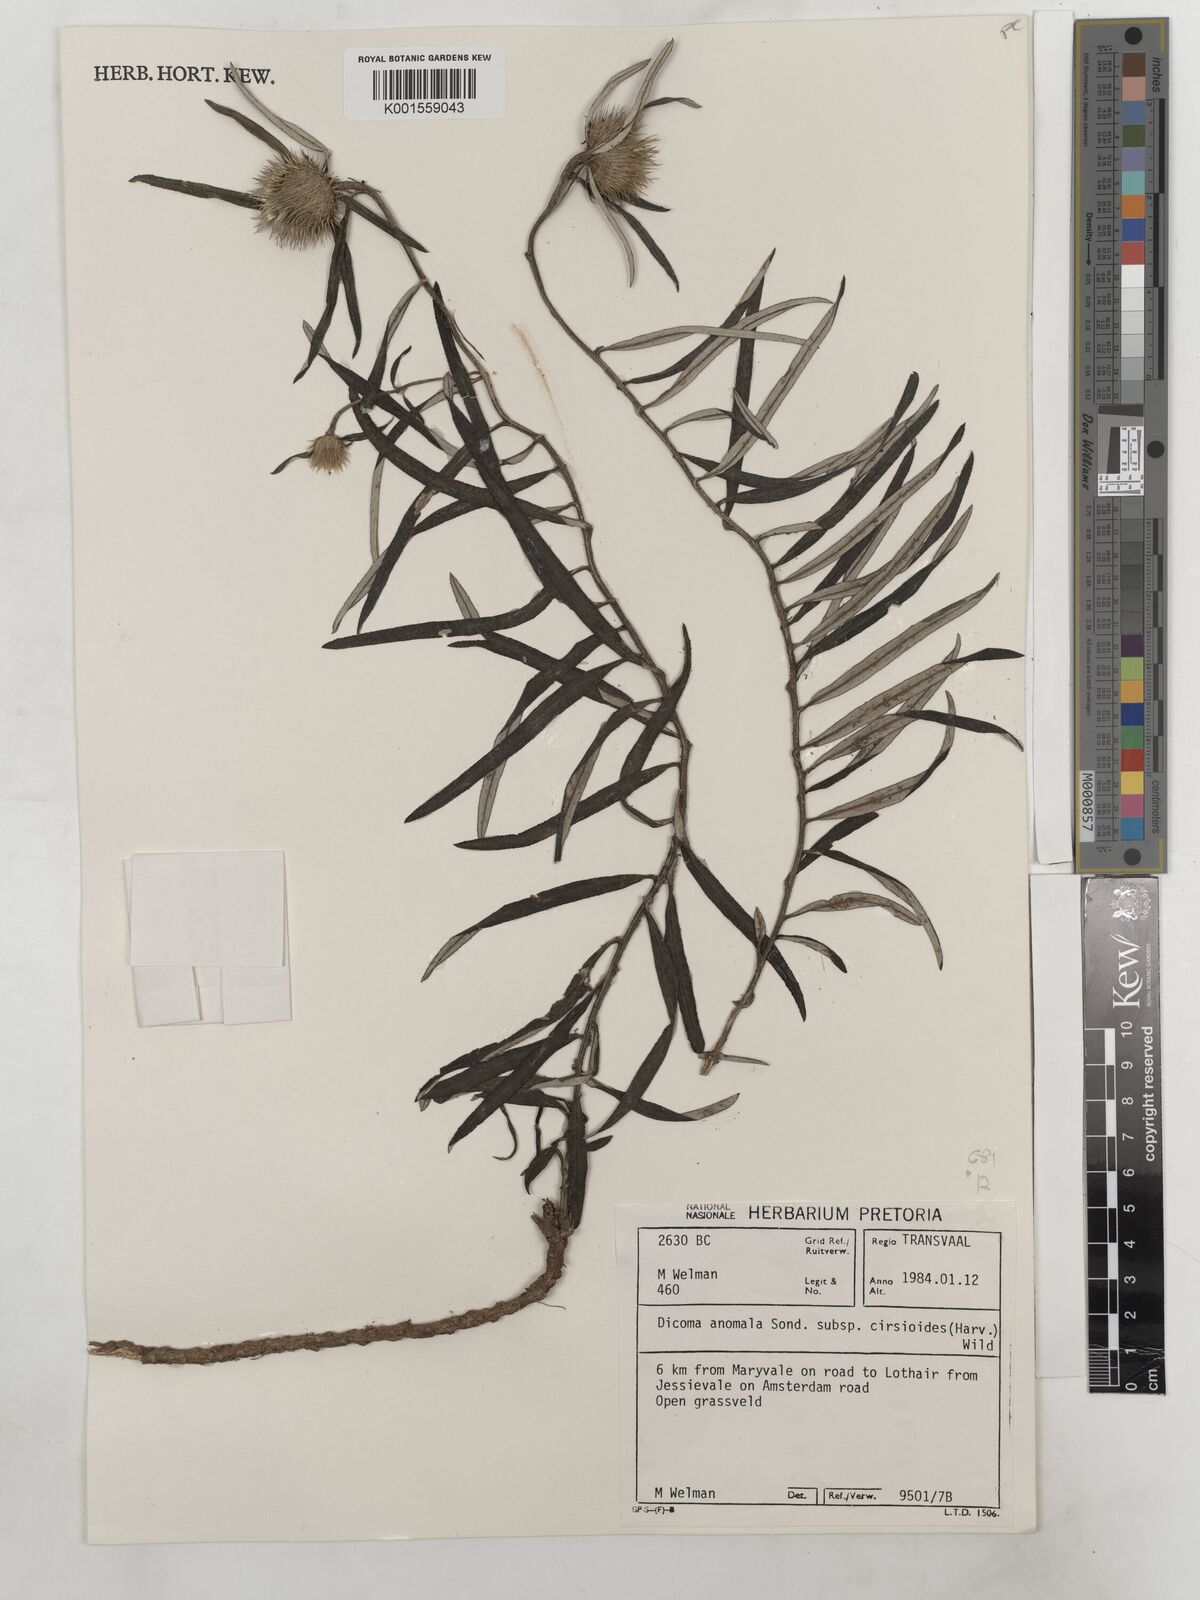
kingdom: Plantae
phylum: Tracheophyta
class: Magnoliopsida
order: Asterales
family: Asteraceae
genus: Dicoma
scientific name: Dicoma anomala
